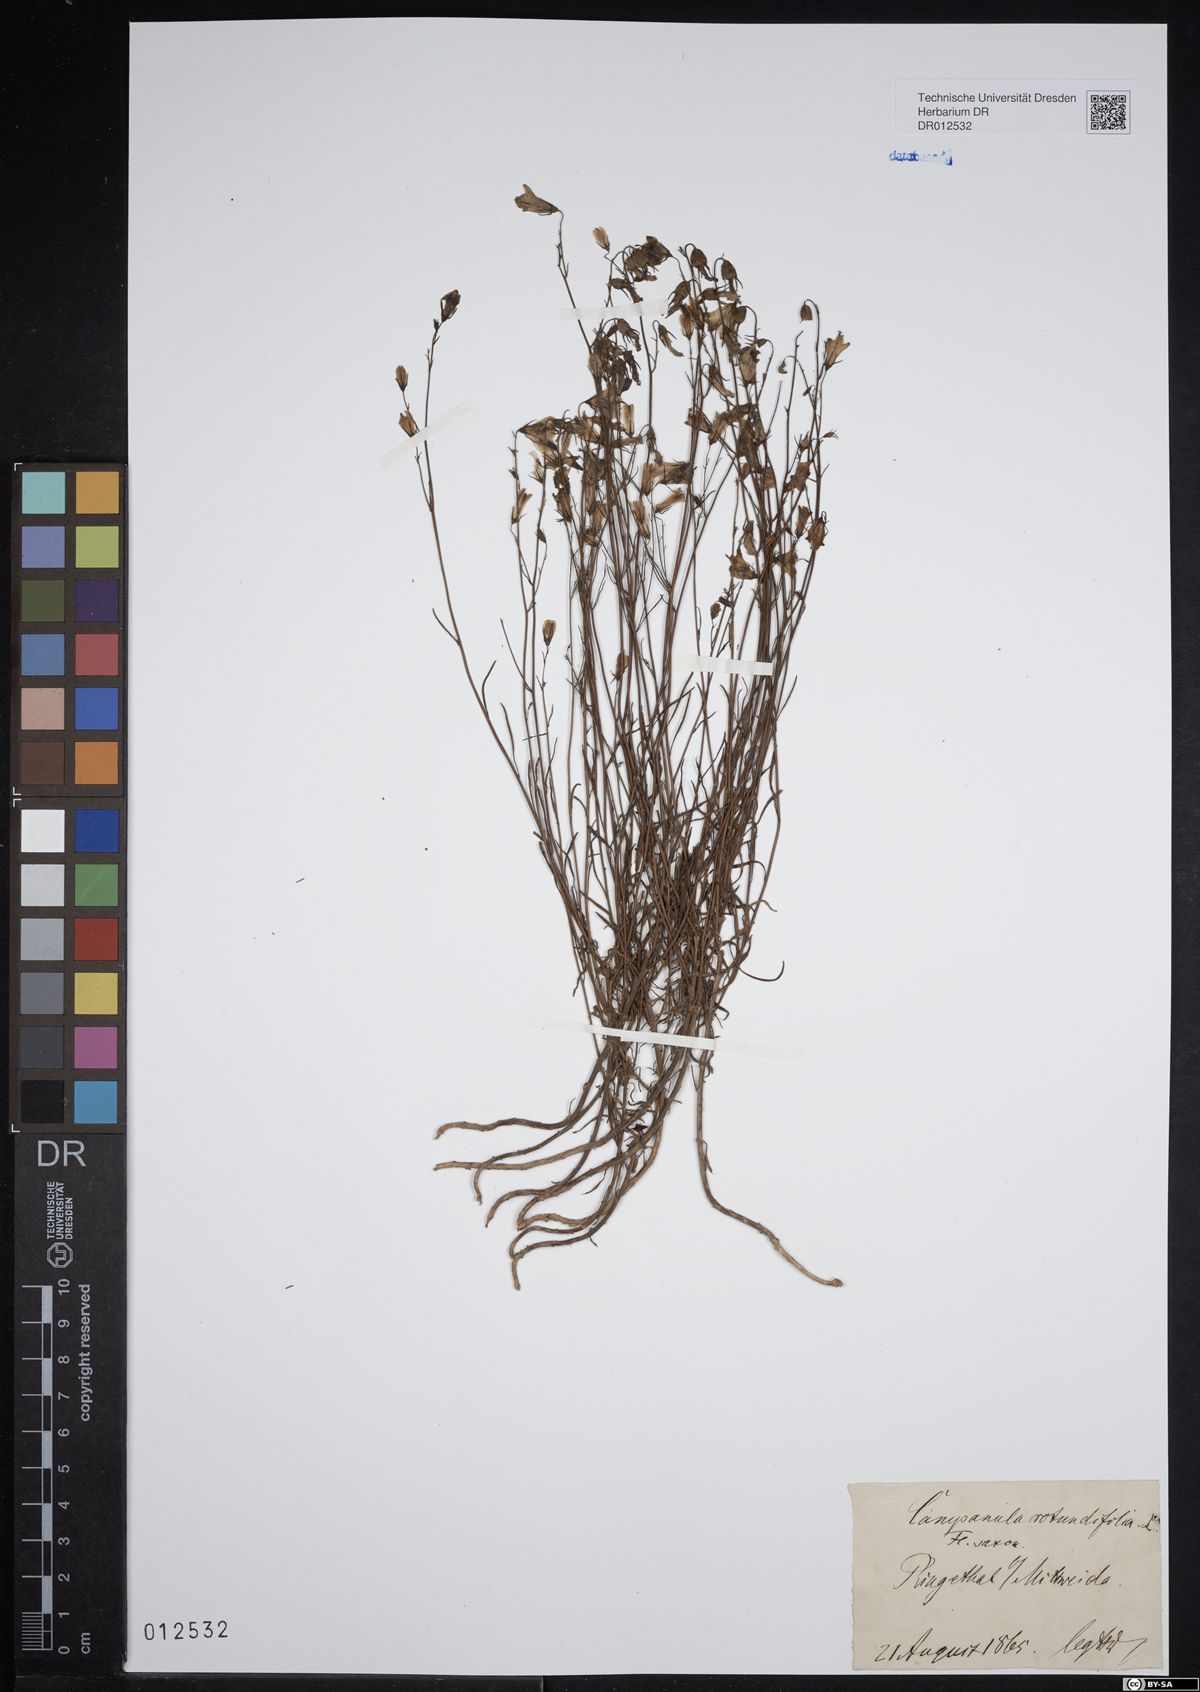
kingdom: Plantae
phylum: Tracheophyta
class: Magnoliopsida
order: Asterales
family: Campanulaceae
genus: Campanula
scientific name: Campanula rotundifolia
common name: Harebell
